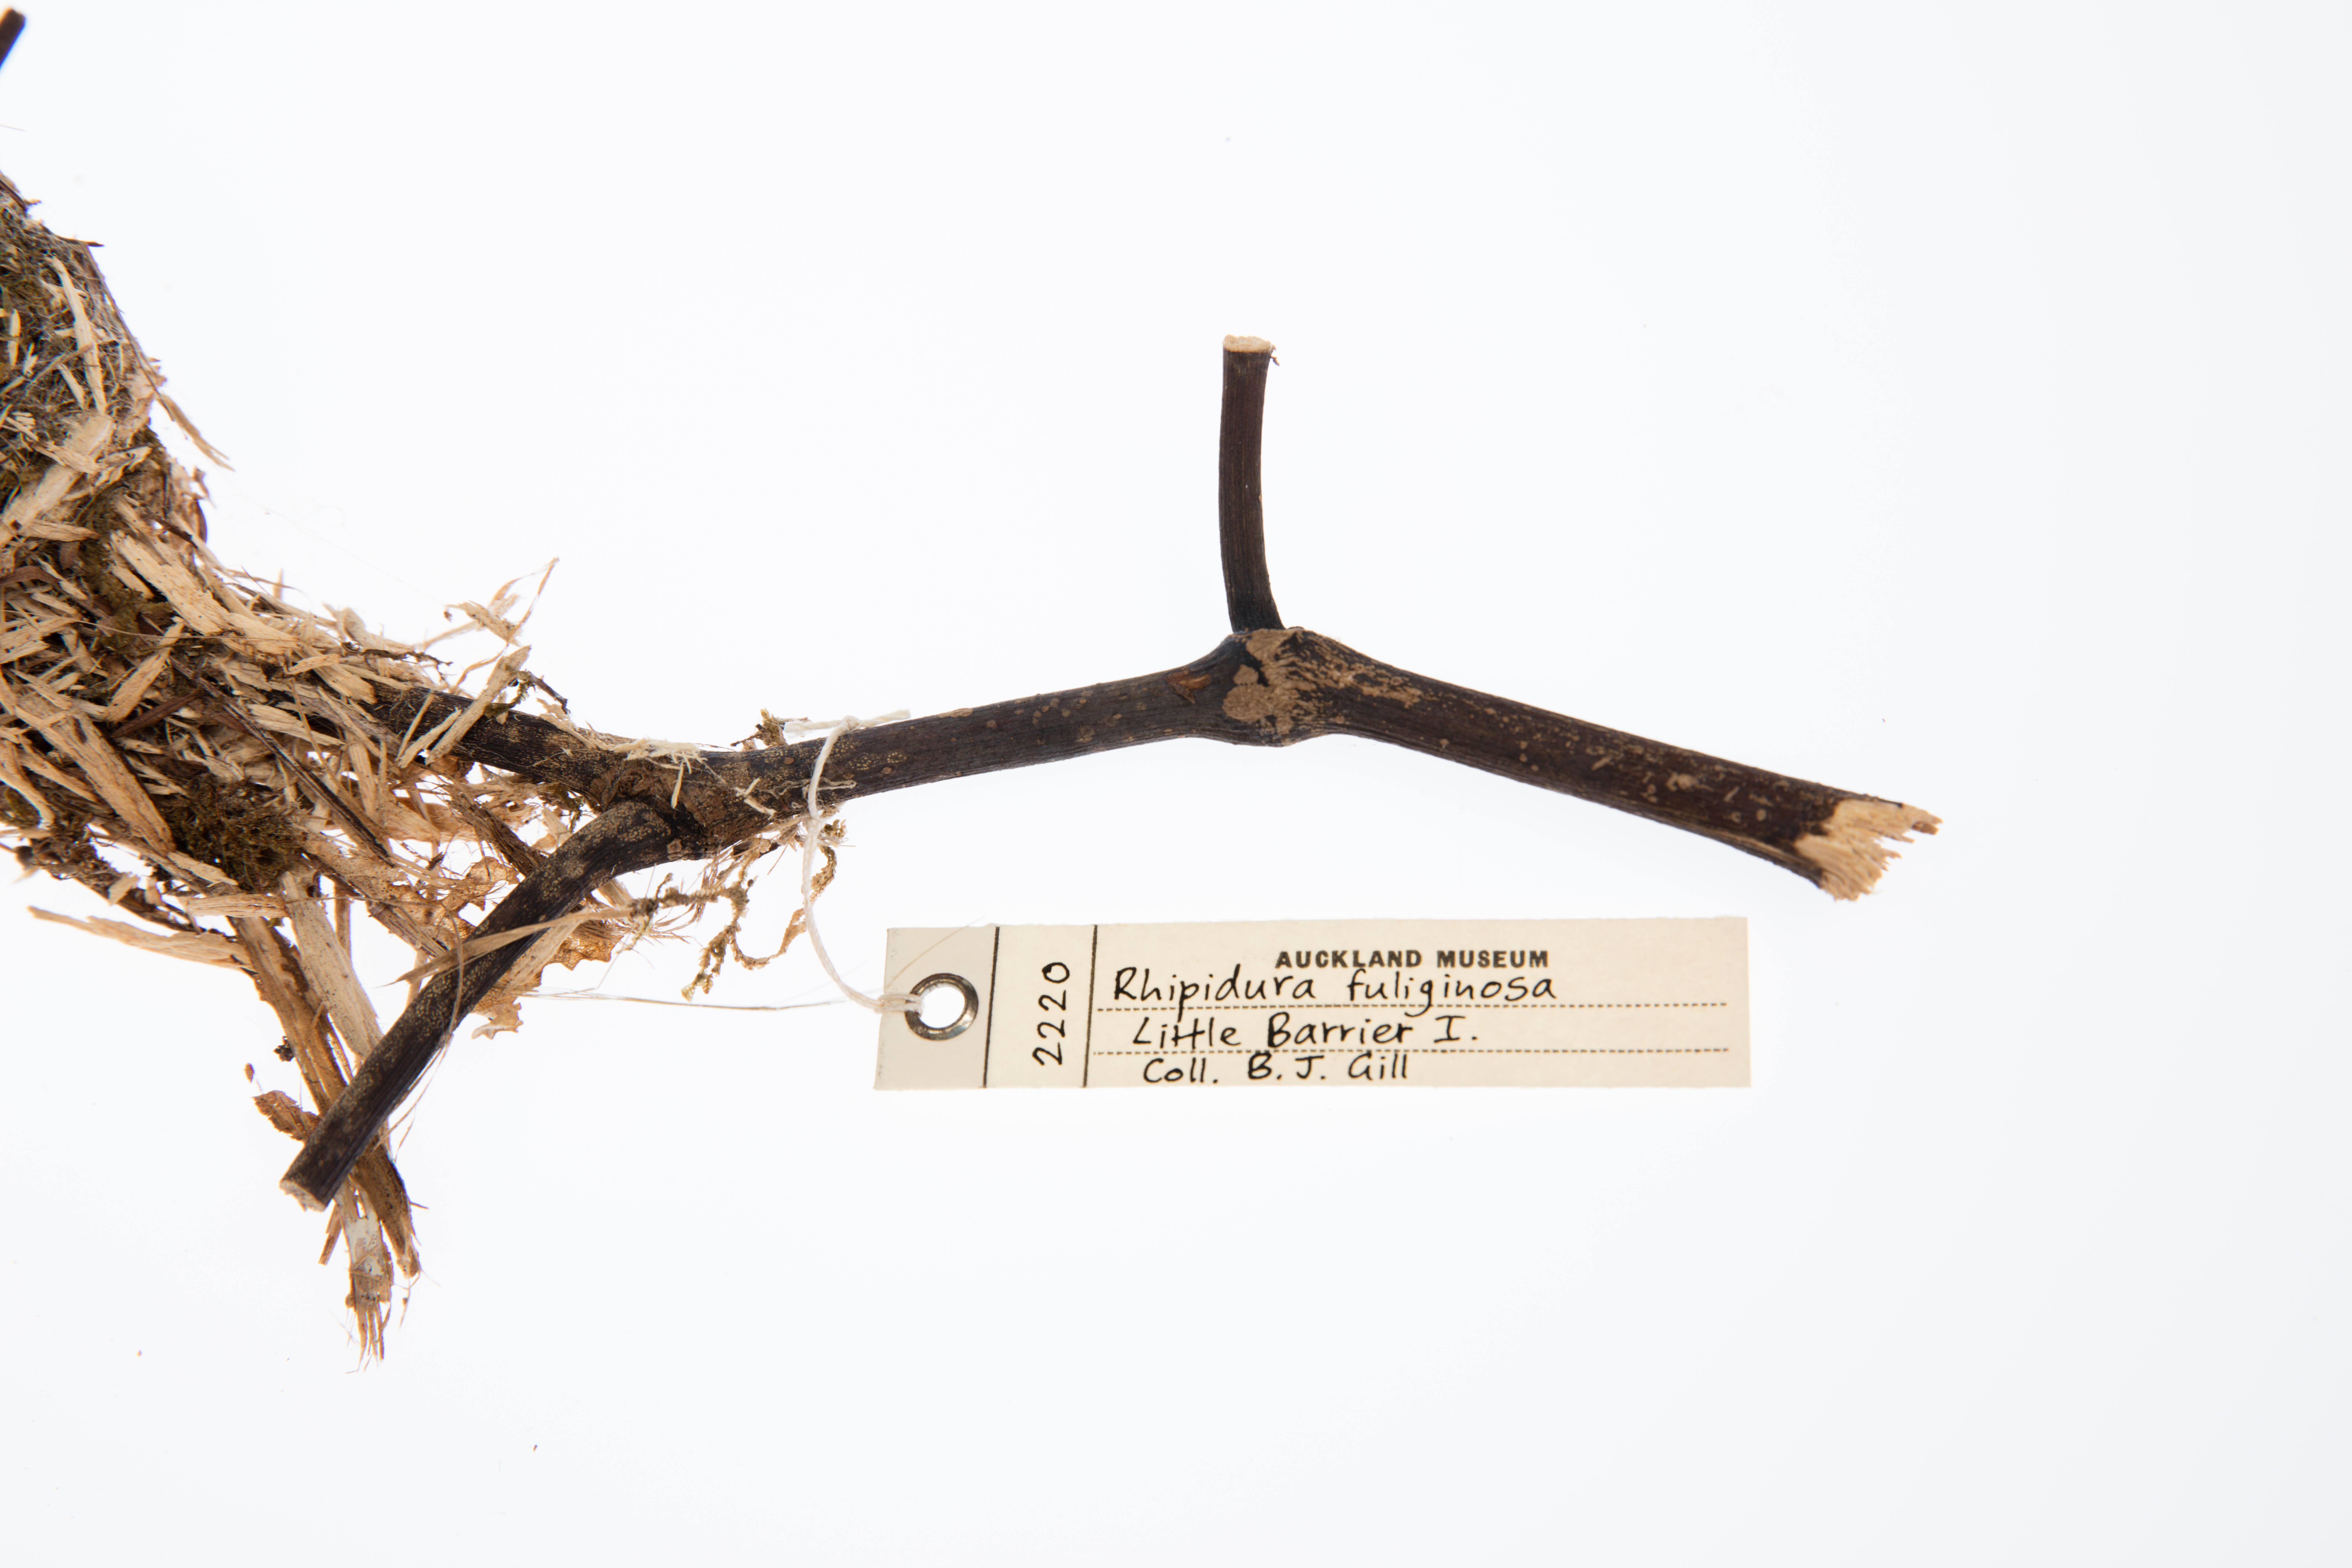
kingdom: Animalia
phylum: Chordata
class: Aves
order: Passeriformes
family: Rhipiduridae
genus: Rhipidura
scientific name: Rhipidura fuliginosa
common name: New zealand fantail
